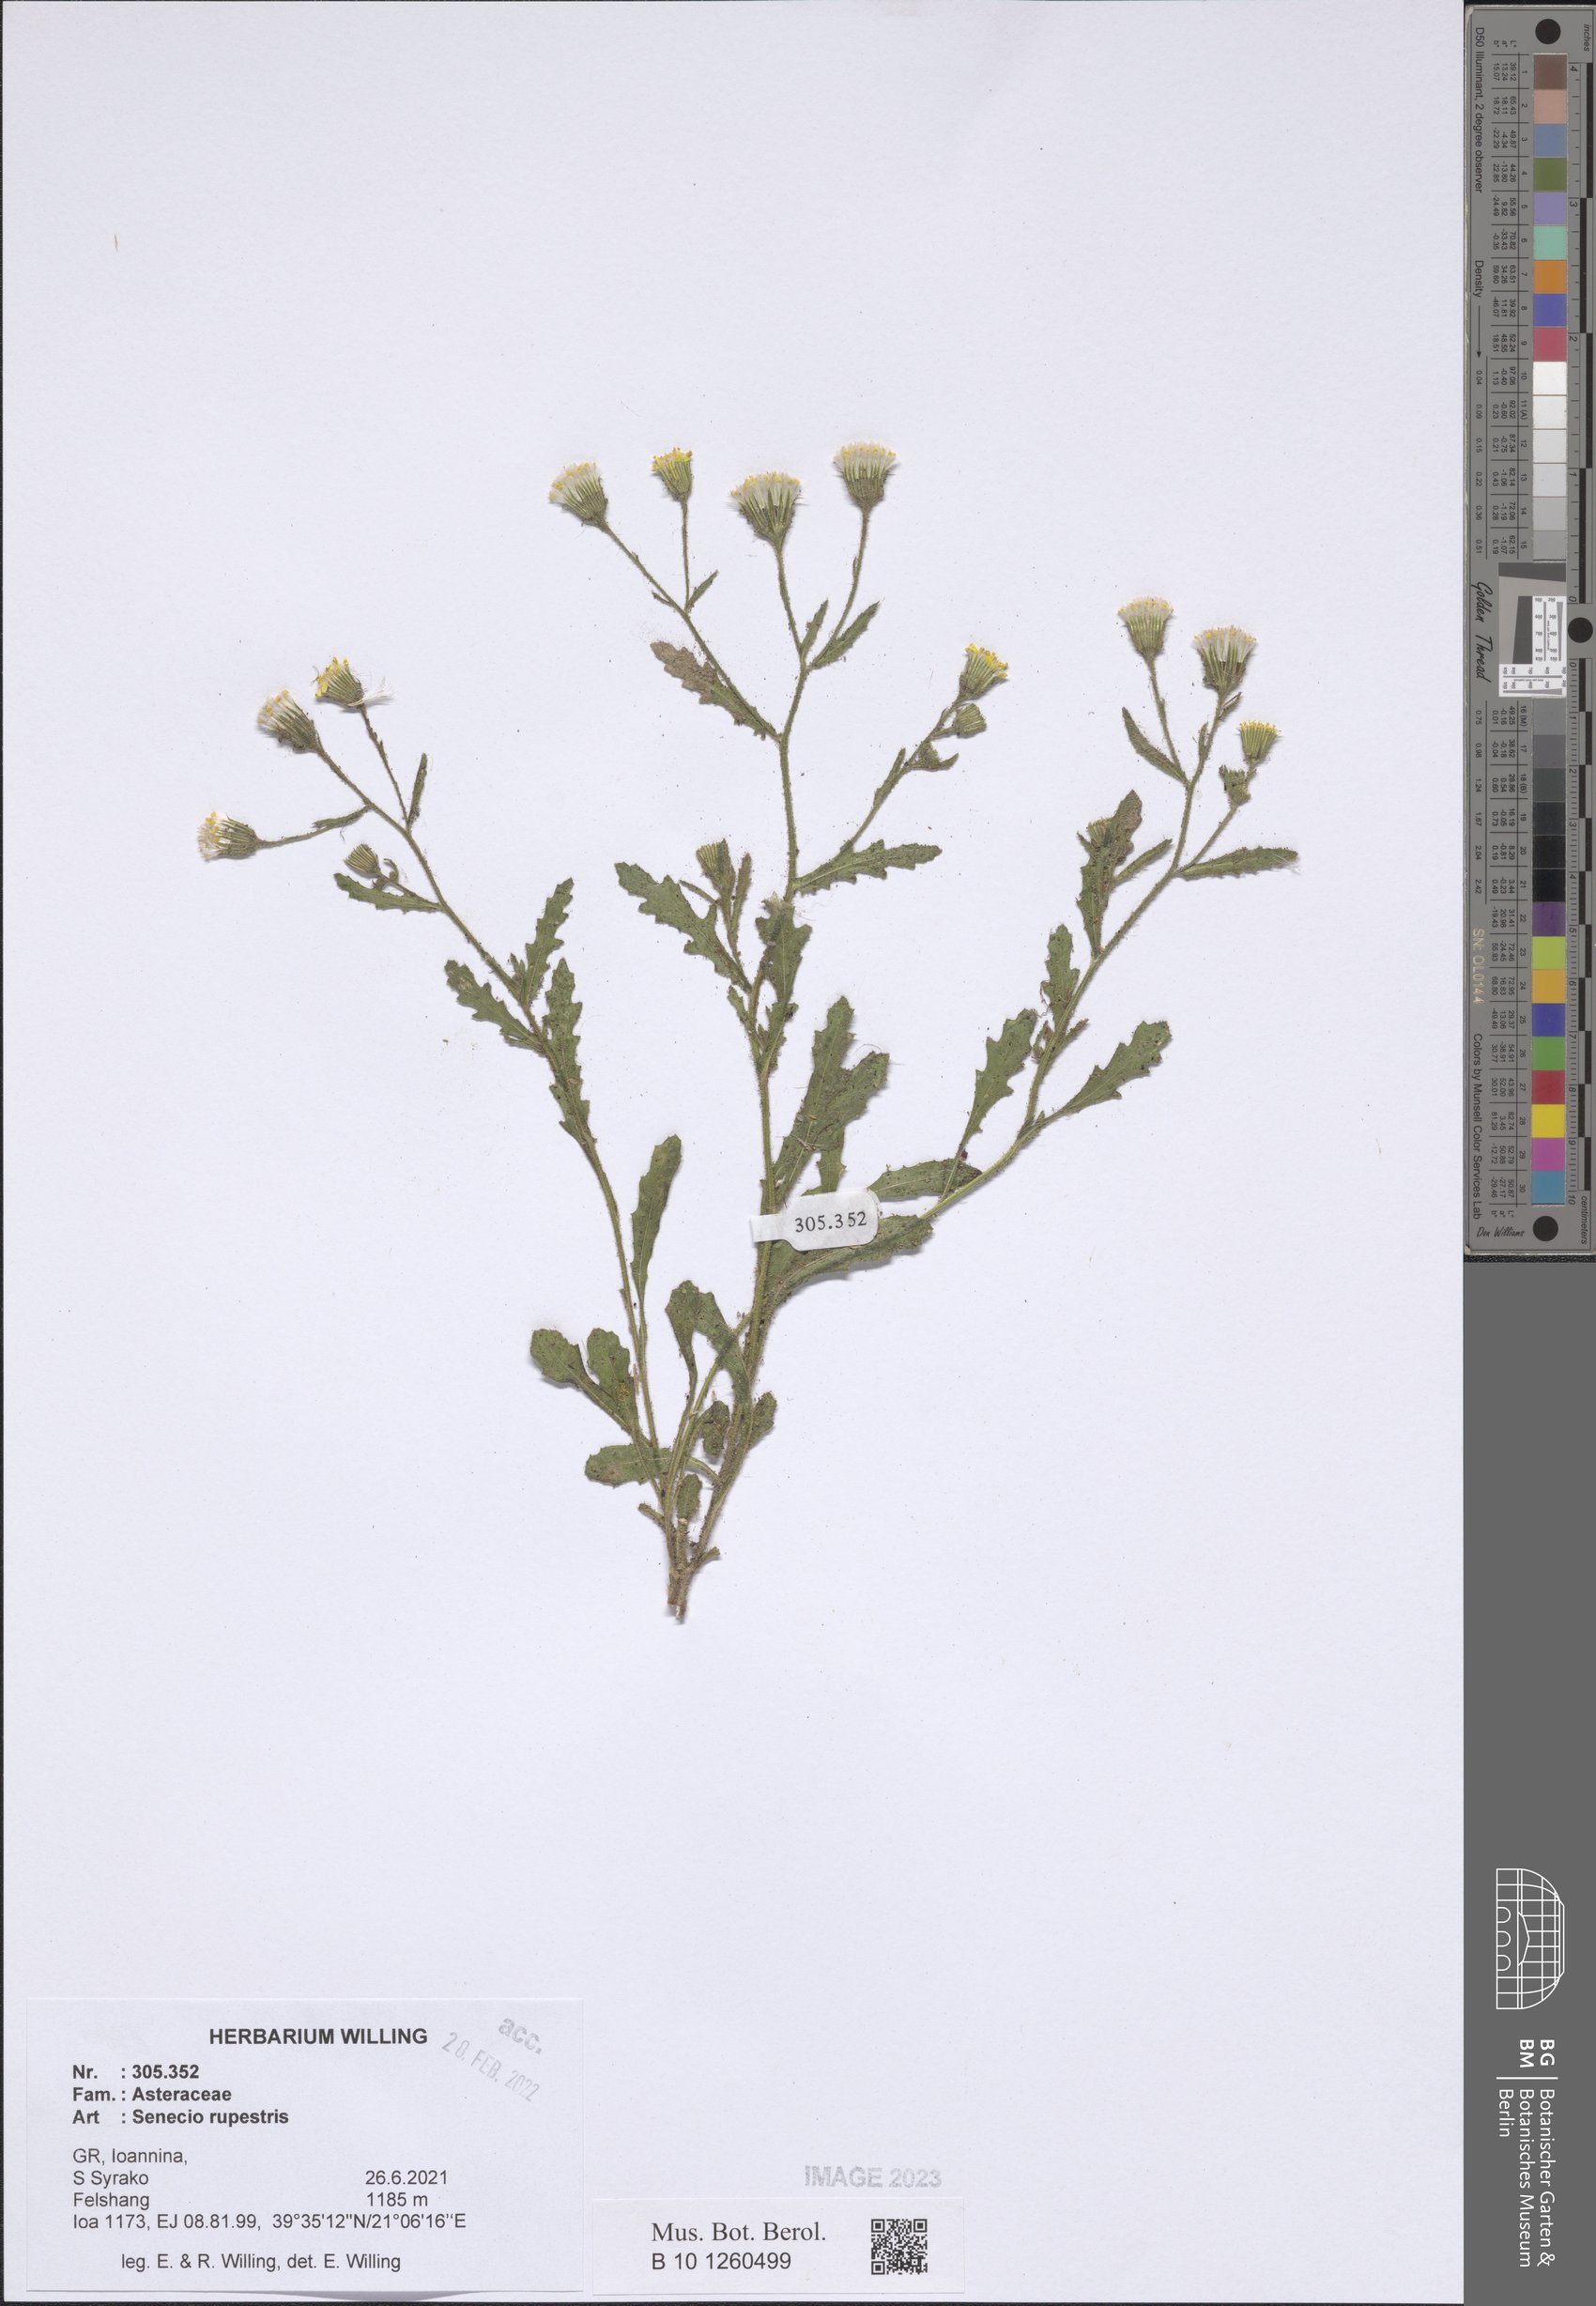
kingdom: Plantae
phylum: Tracheophyta
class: Magnoliopsida
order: Asterales
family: Asteraceae
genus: Senecio
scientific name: Senecio rupestris
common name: Rock ragwort
